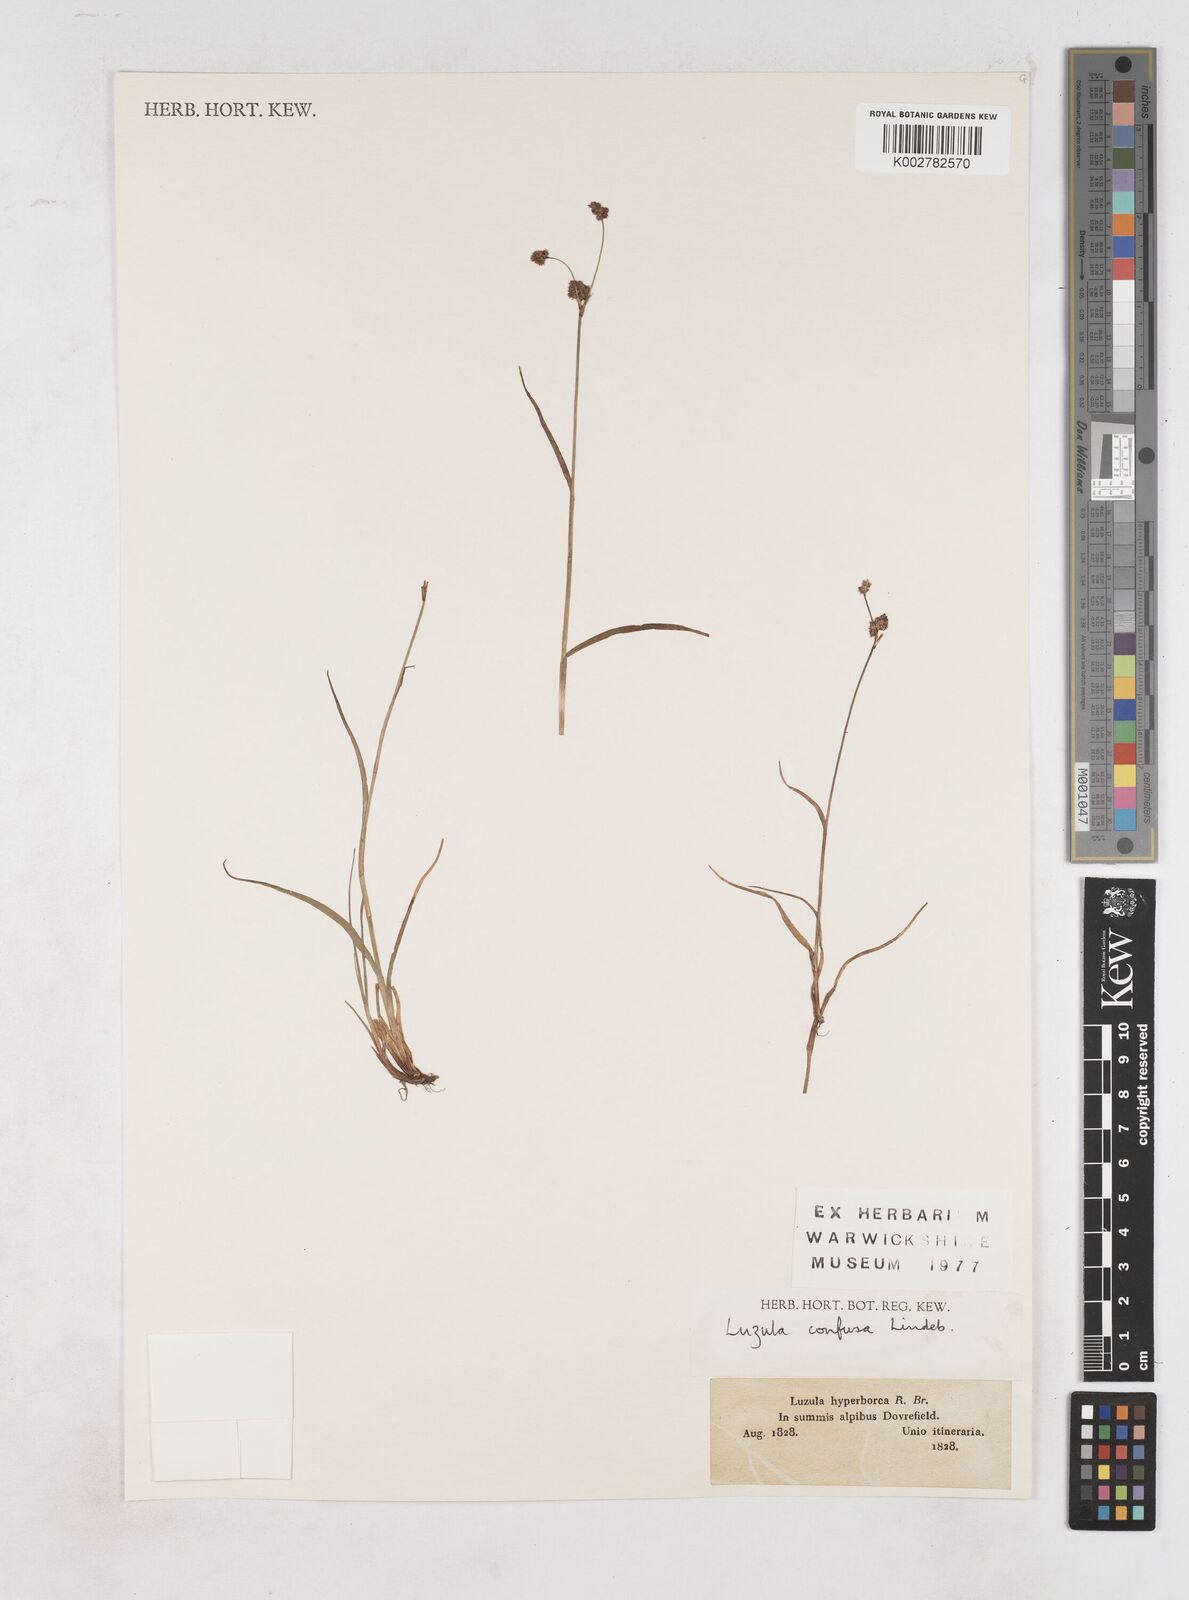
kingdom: Plantae
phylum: Tracheophyta
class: Liliopsida
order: Poales
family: Juncaceae
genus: Luzula
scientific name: Luzula confusa
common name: Northern wood rush
